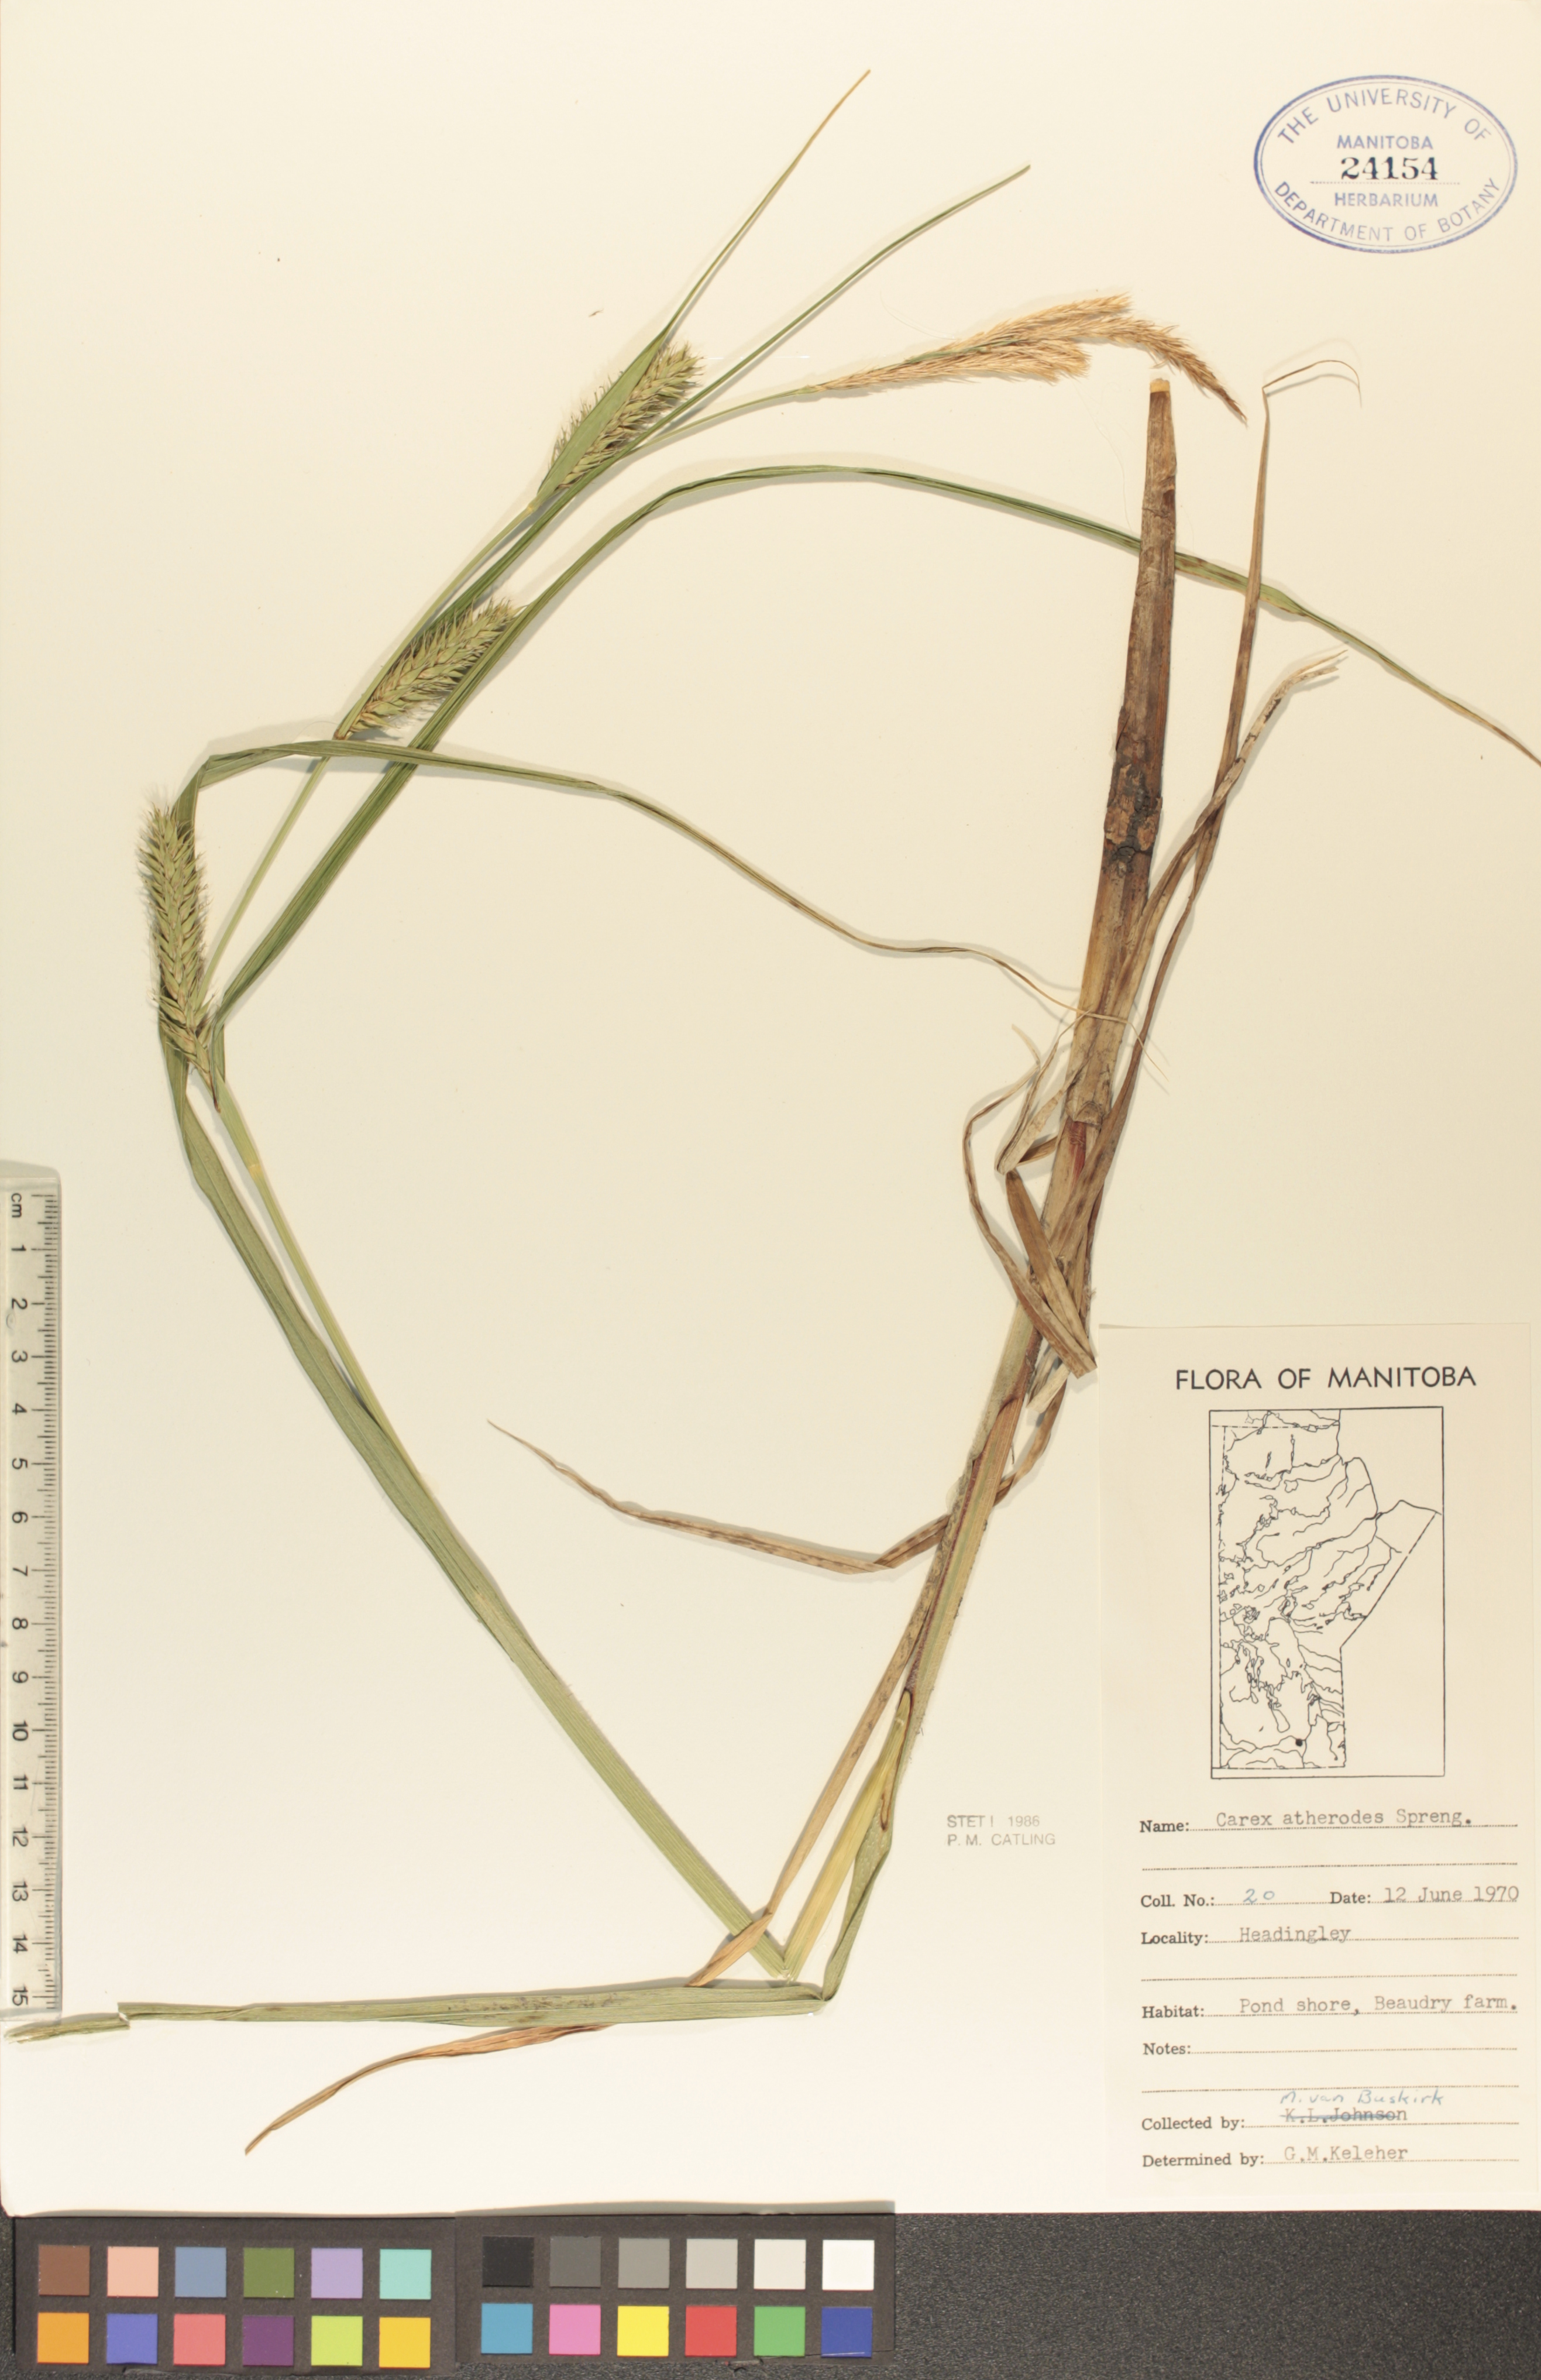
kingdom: Plantae
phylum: Tracheophyta
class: Liliopsida
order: Poales
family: Cyperaceae
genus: Carex
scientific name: Carex atherodes
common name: Wheat sedge
